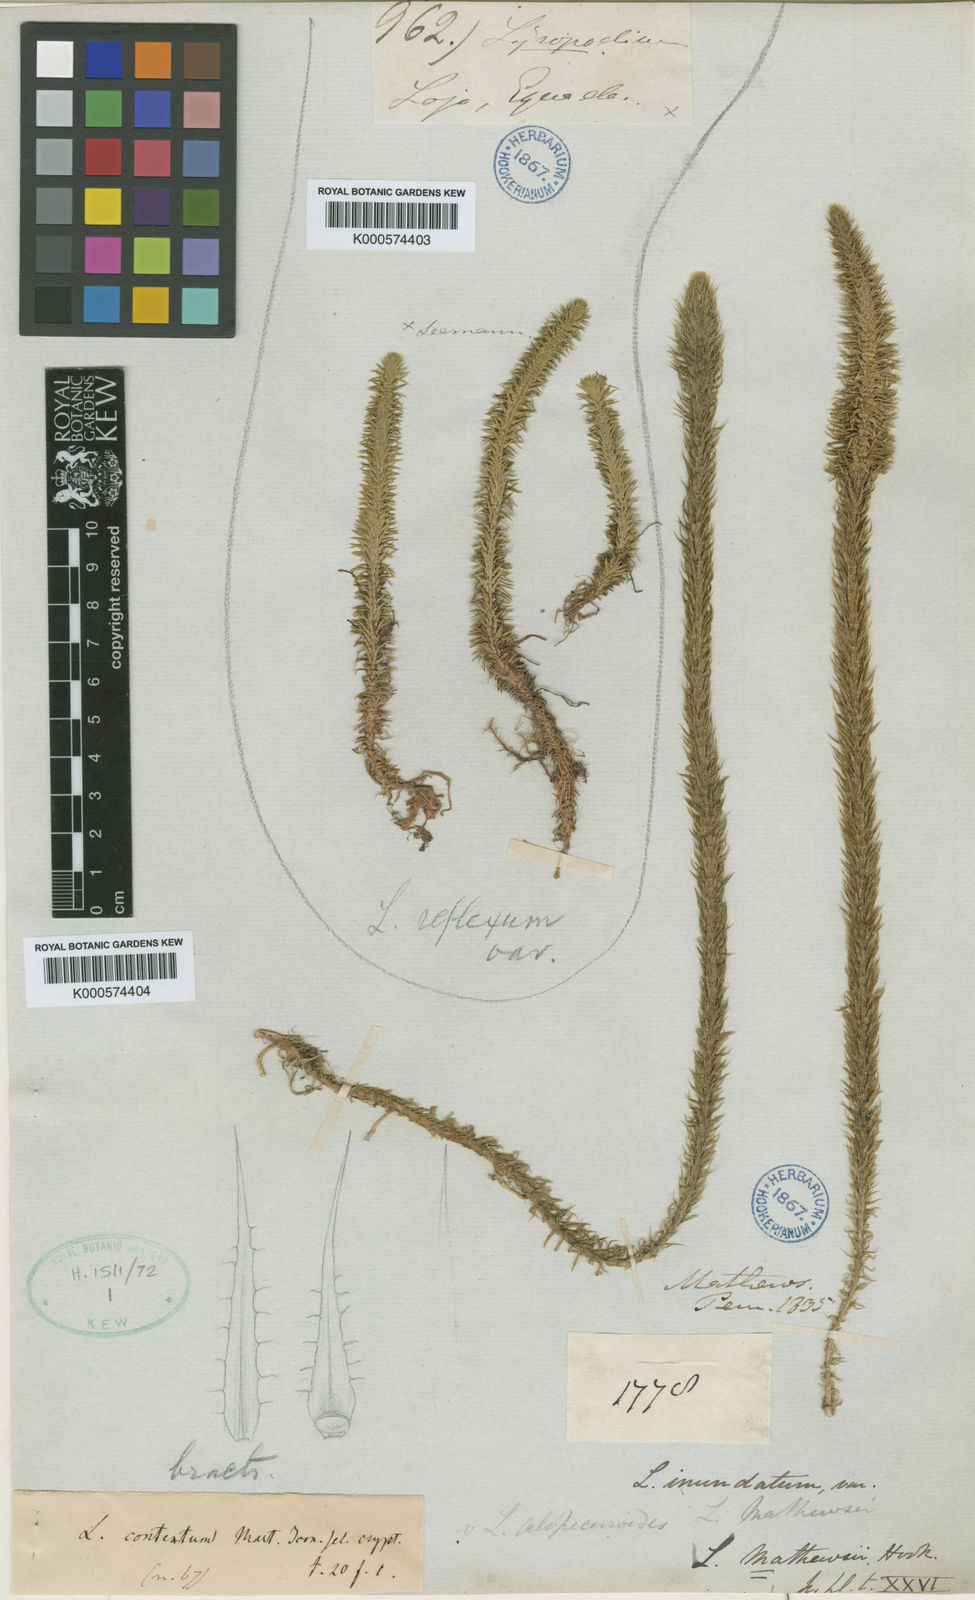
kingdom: Plantae
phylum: Tracheophyta
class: Lycopodiopsida
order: Lycopodiales
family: Lycopodiaceae
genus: Lycopodiella
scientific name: Lycopodiella alopecuroides
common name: Foxtail clubmoss
